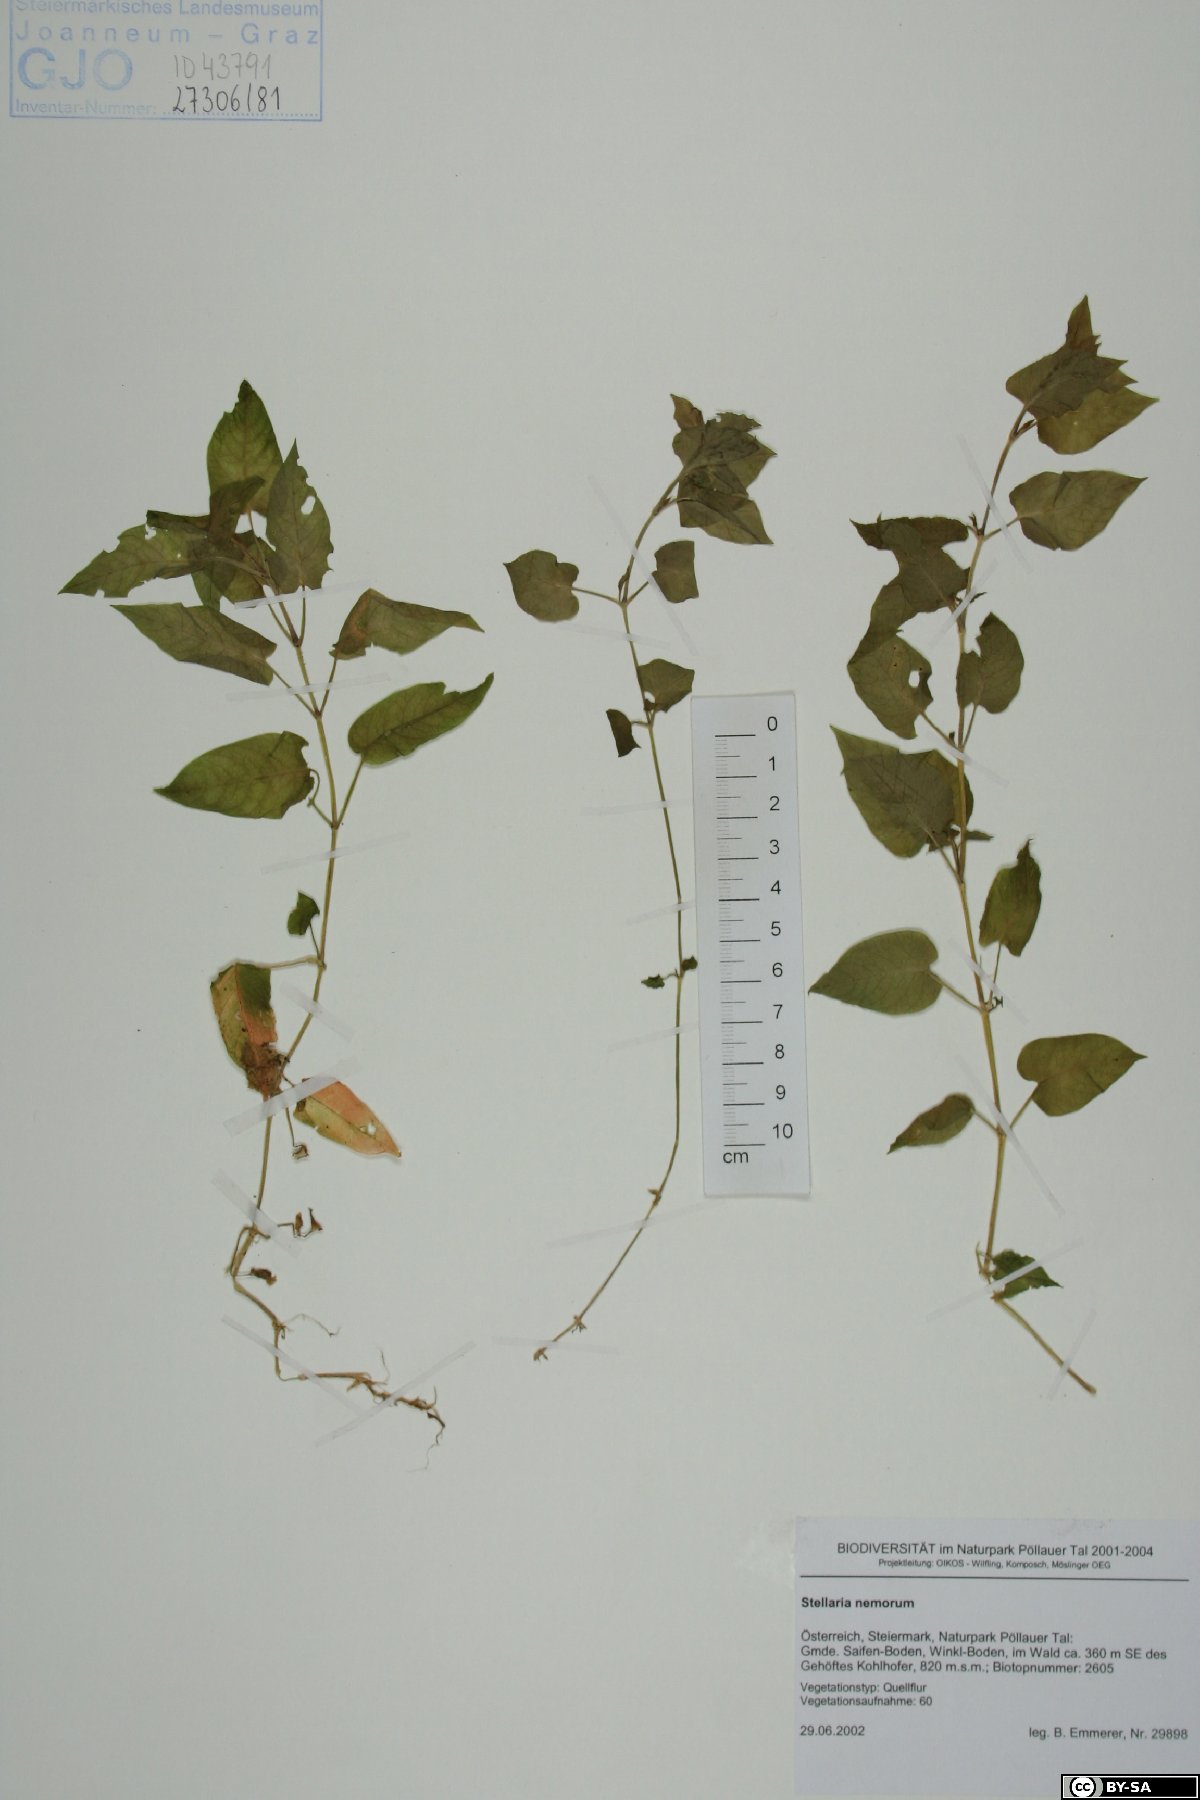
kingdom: Plantae
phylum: Tracheophyta
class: Magnoliopsida
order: Caryophyllales
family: Caryophyllaceae
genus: Stellaria
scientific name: Stellaria nemorum
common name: Wood stitchwort
